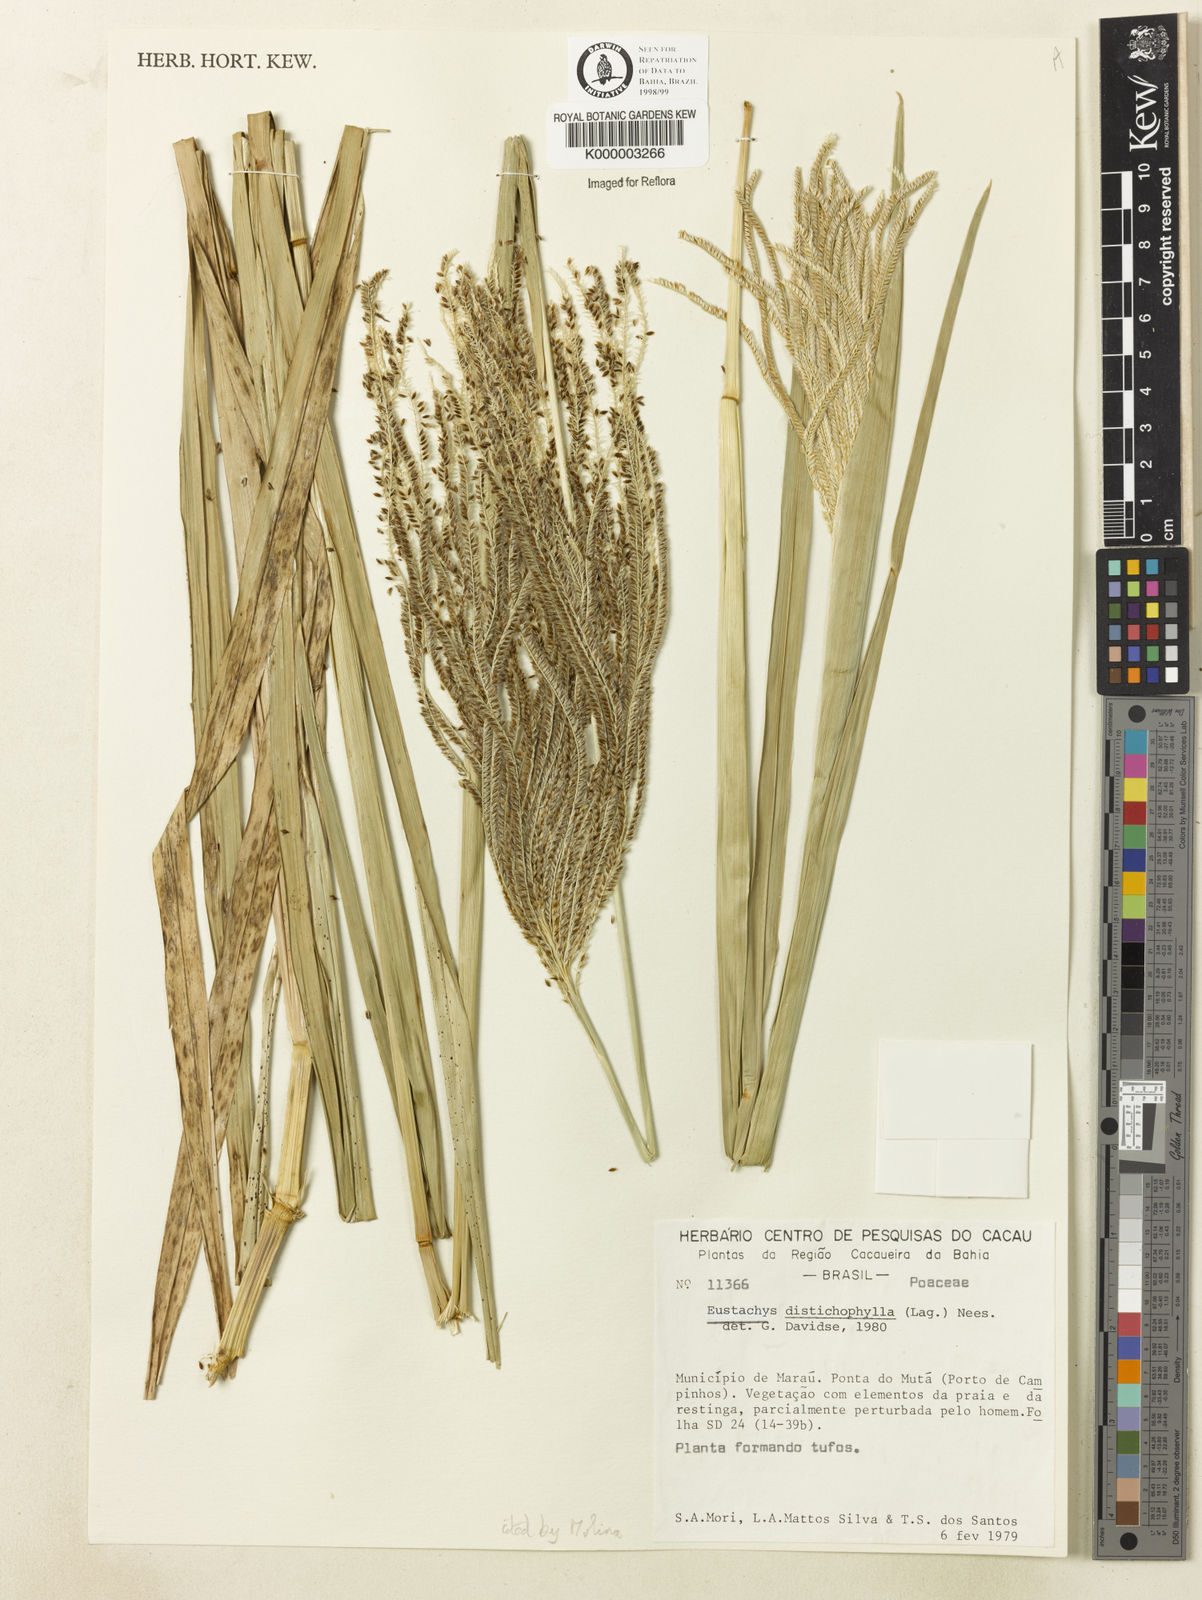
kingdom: Plantae
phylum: Tracheophyta
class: Liliopsida
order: Poales
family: Poaceae
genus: Eustachys
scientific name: Eustachys distichophylla
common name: Weeping fingergrass
